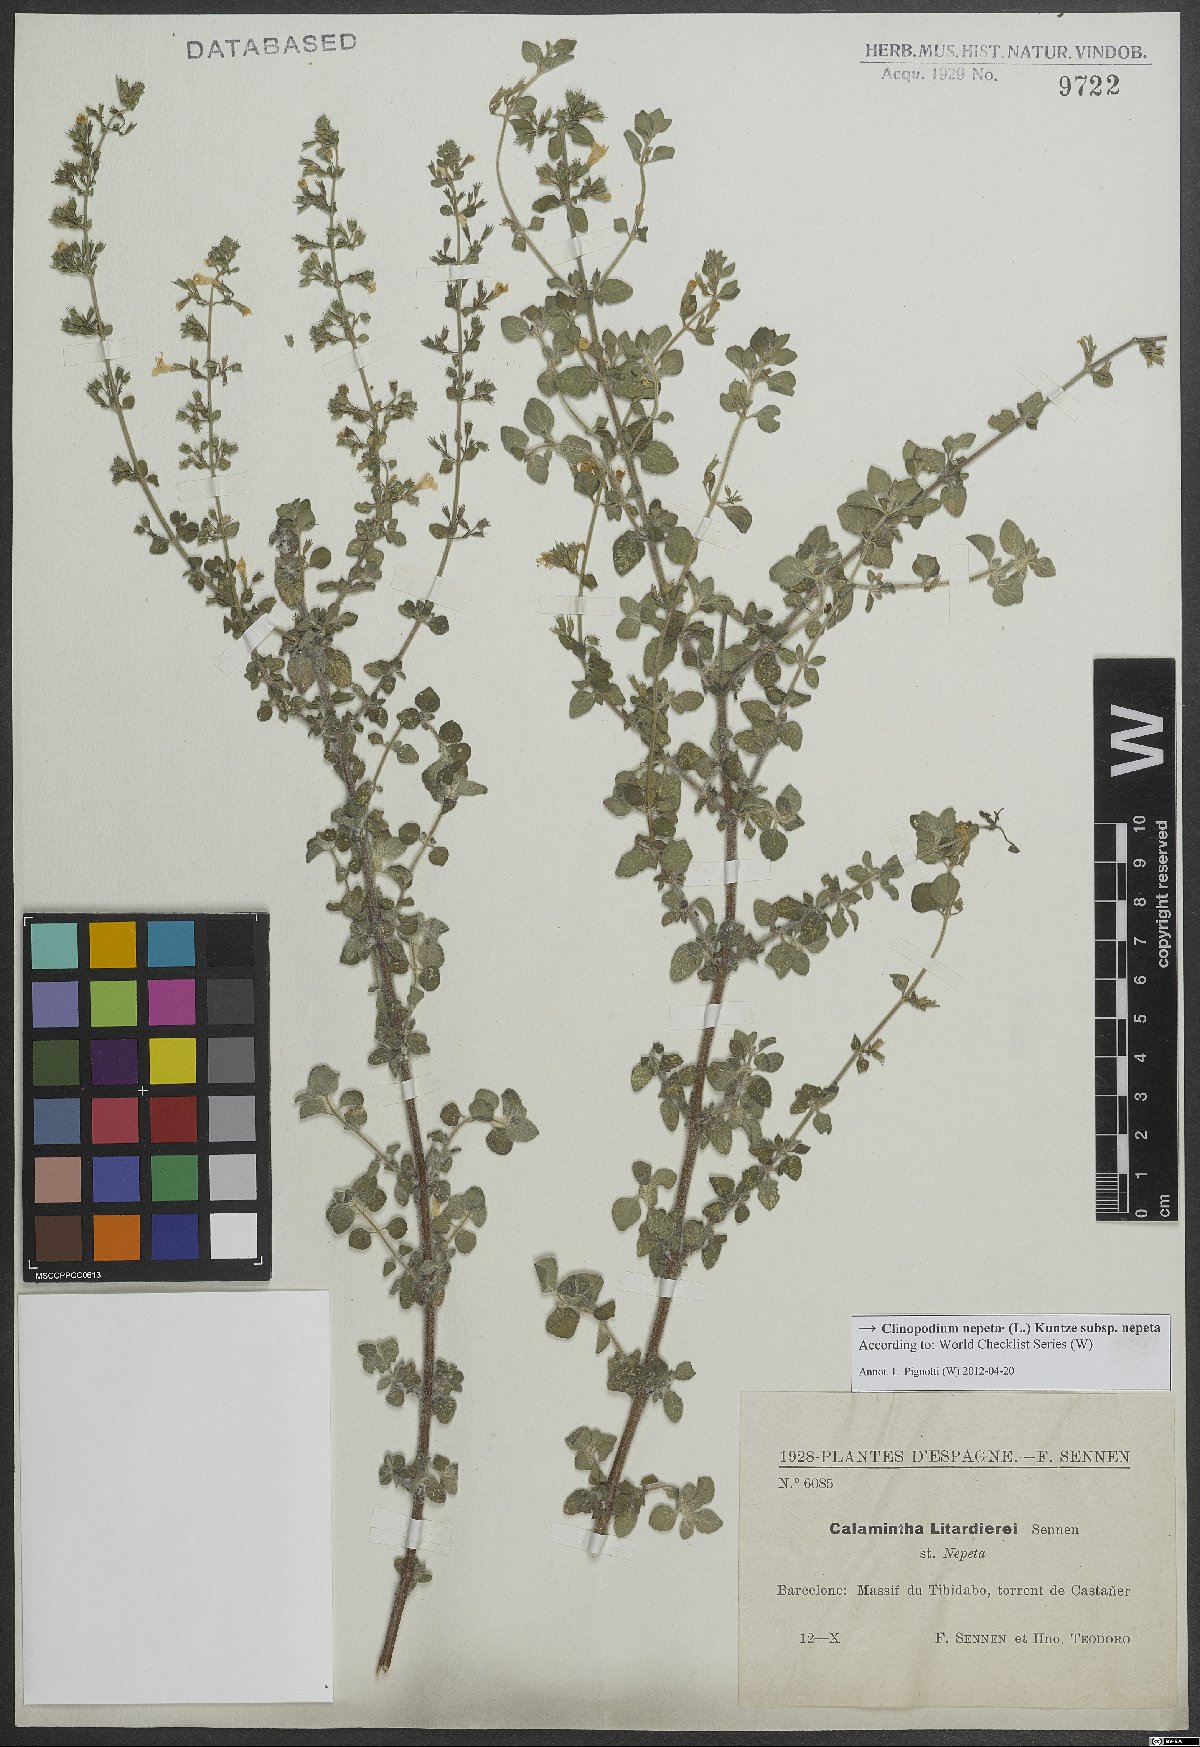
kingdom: Plantae
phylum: Tracheophyta
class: Magnoliopsida
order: Lamiales
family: Lamiaceae
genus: Clinopodium
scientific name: Clinopodium nepeta
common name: Lesser calamint
